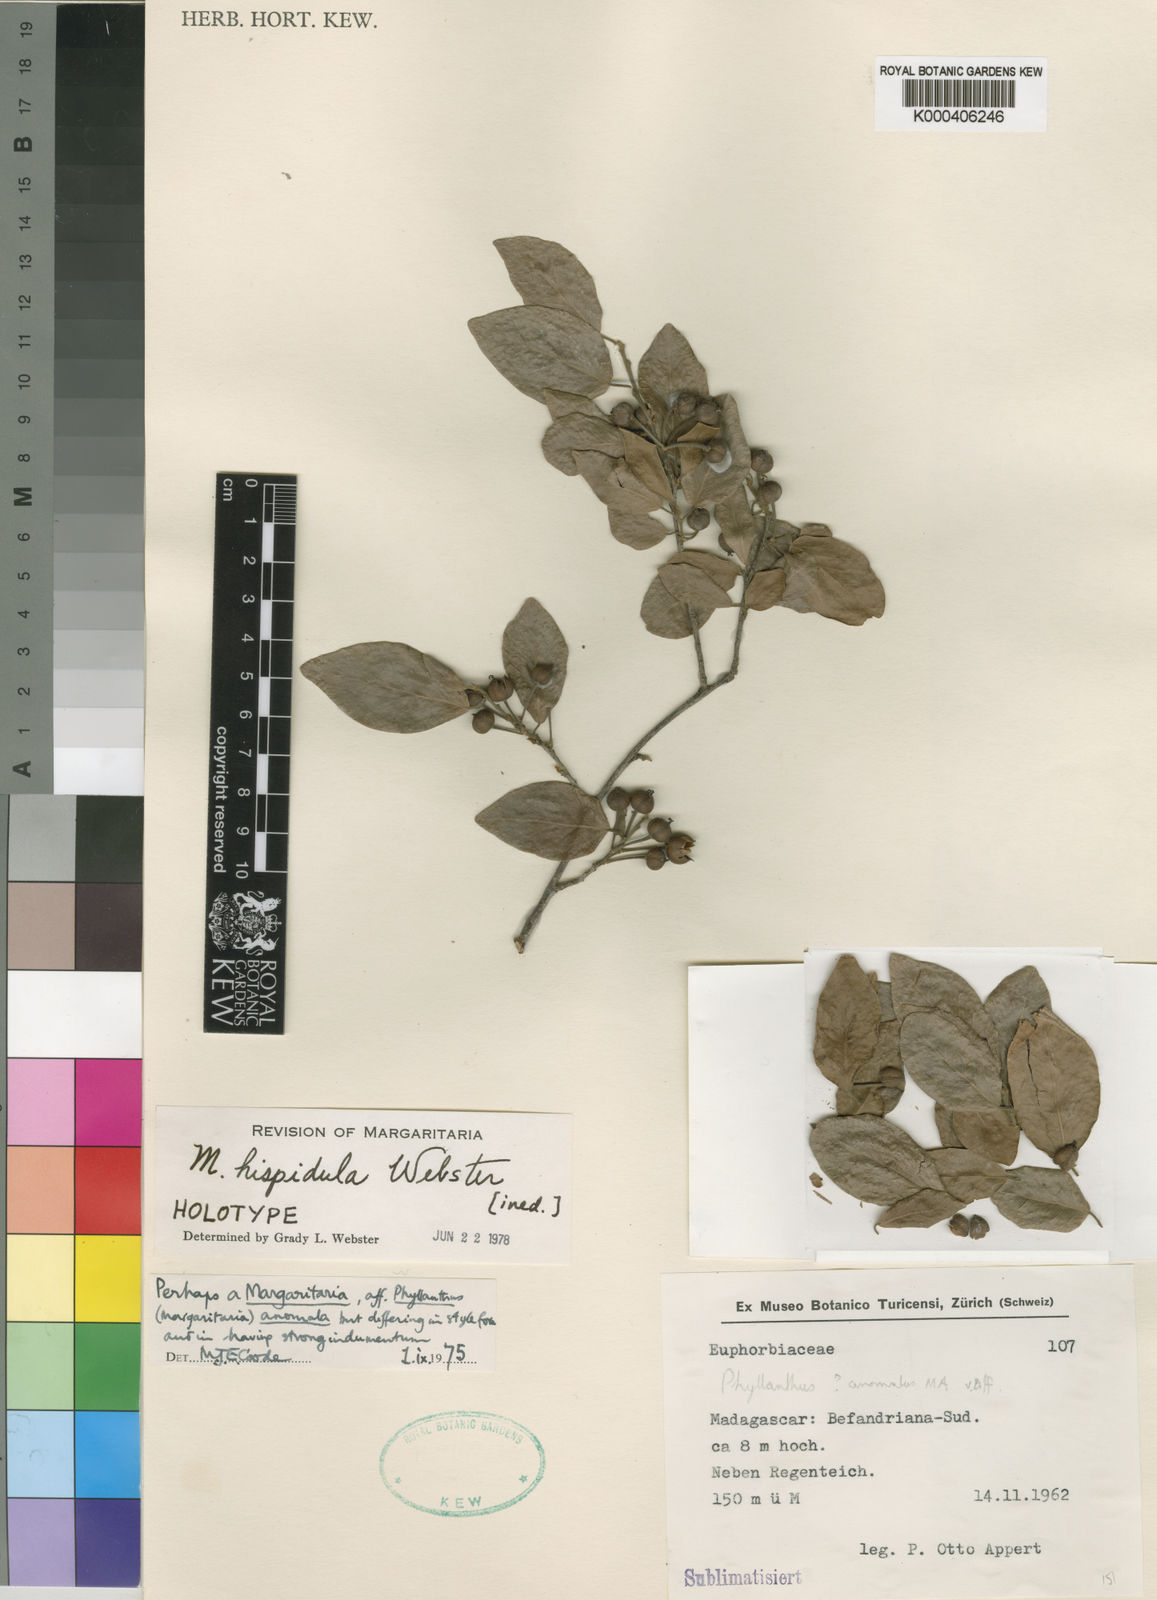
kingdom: Plantae
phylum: Tracheophyta
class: Magnoliopsida
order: Malpighiales
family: Phyllanthaceae
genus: Margaritaria
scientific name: Margaritaria hispidula
